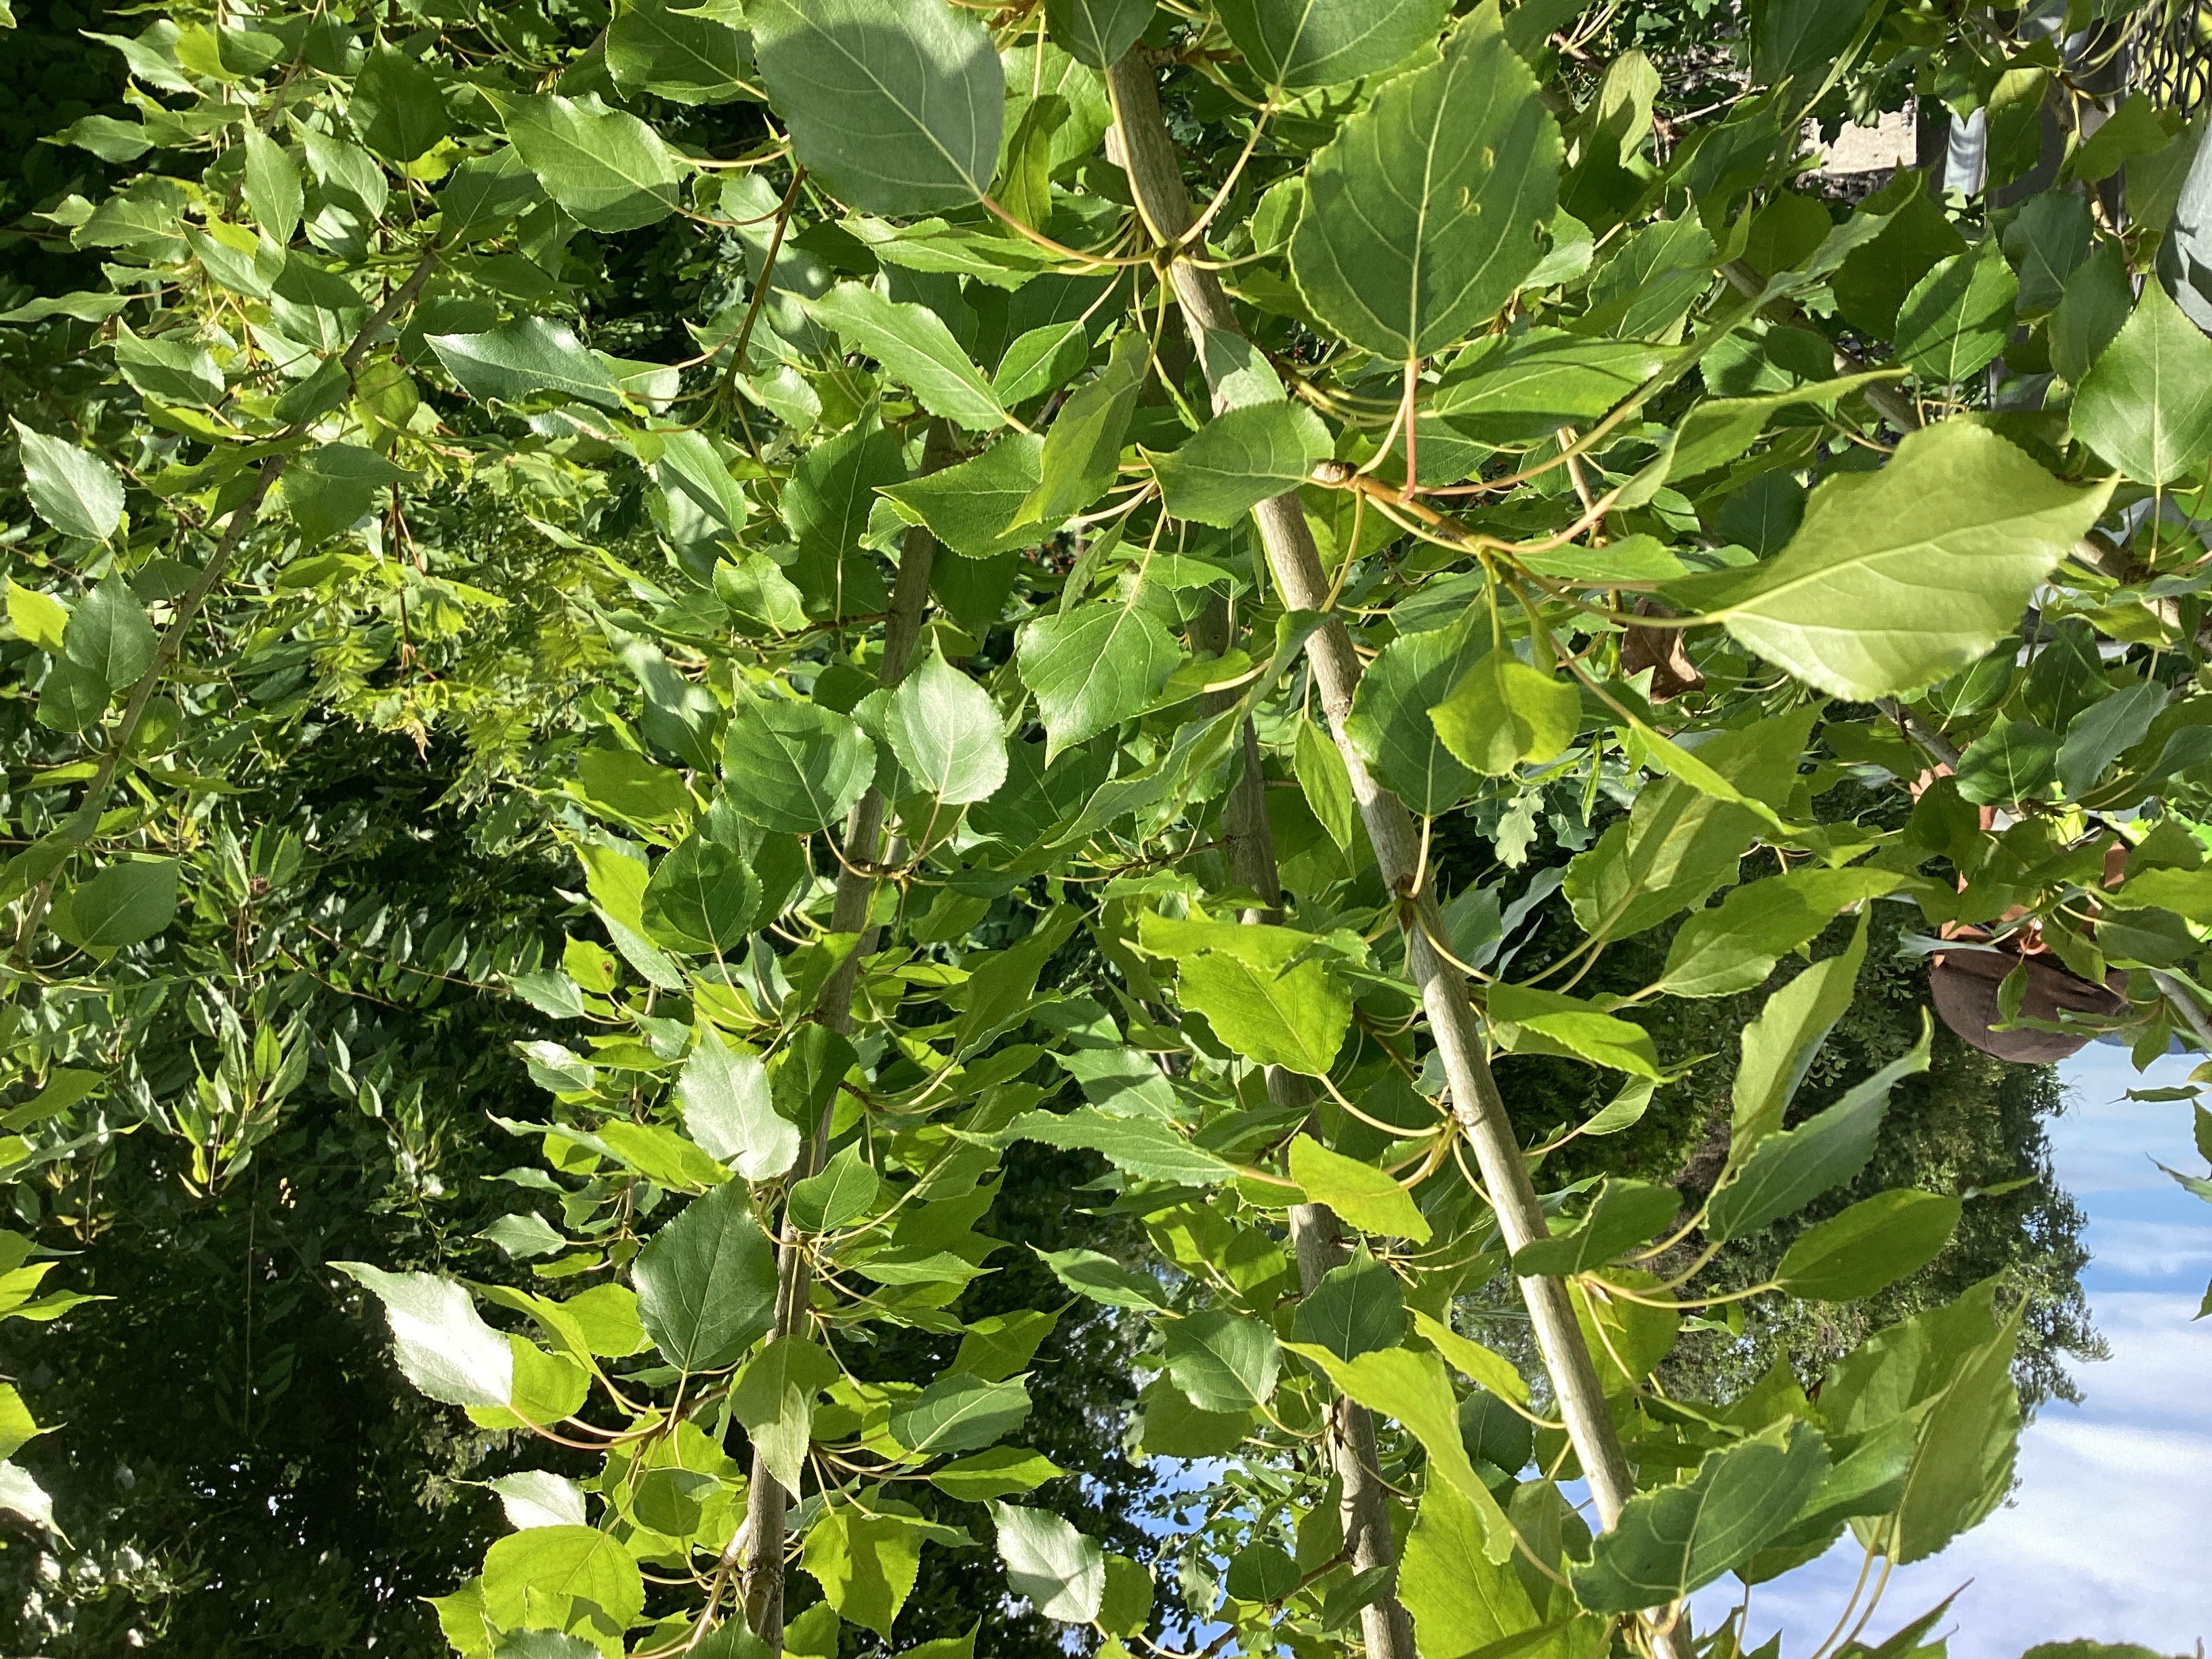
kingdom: Plantae
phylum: Tracheophyta
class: Magnoliopsida
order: Malpighiales
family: Salicaceae
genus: Populus
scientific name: Populus balsamifera
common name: balsampoppel
